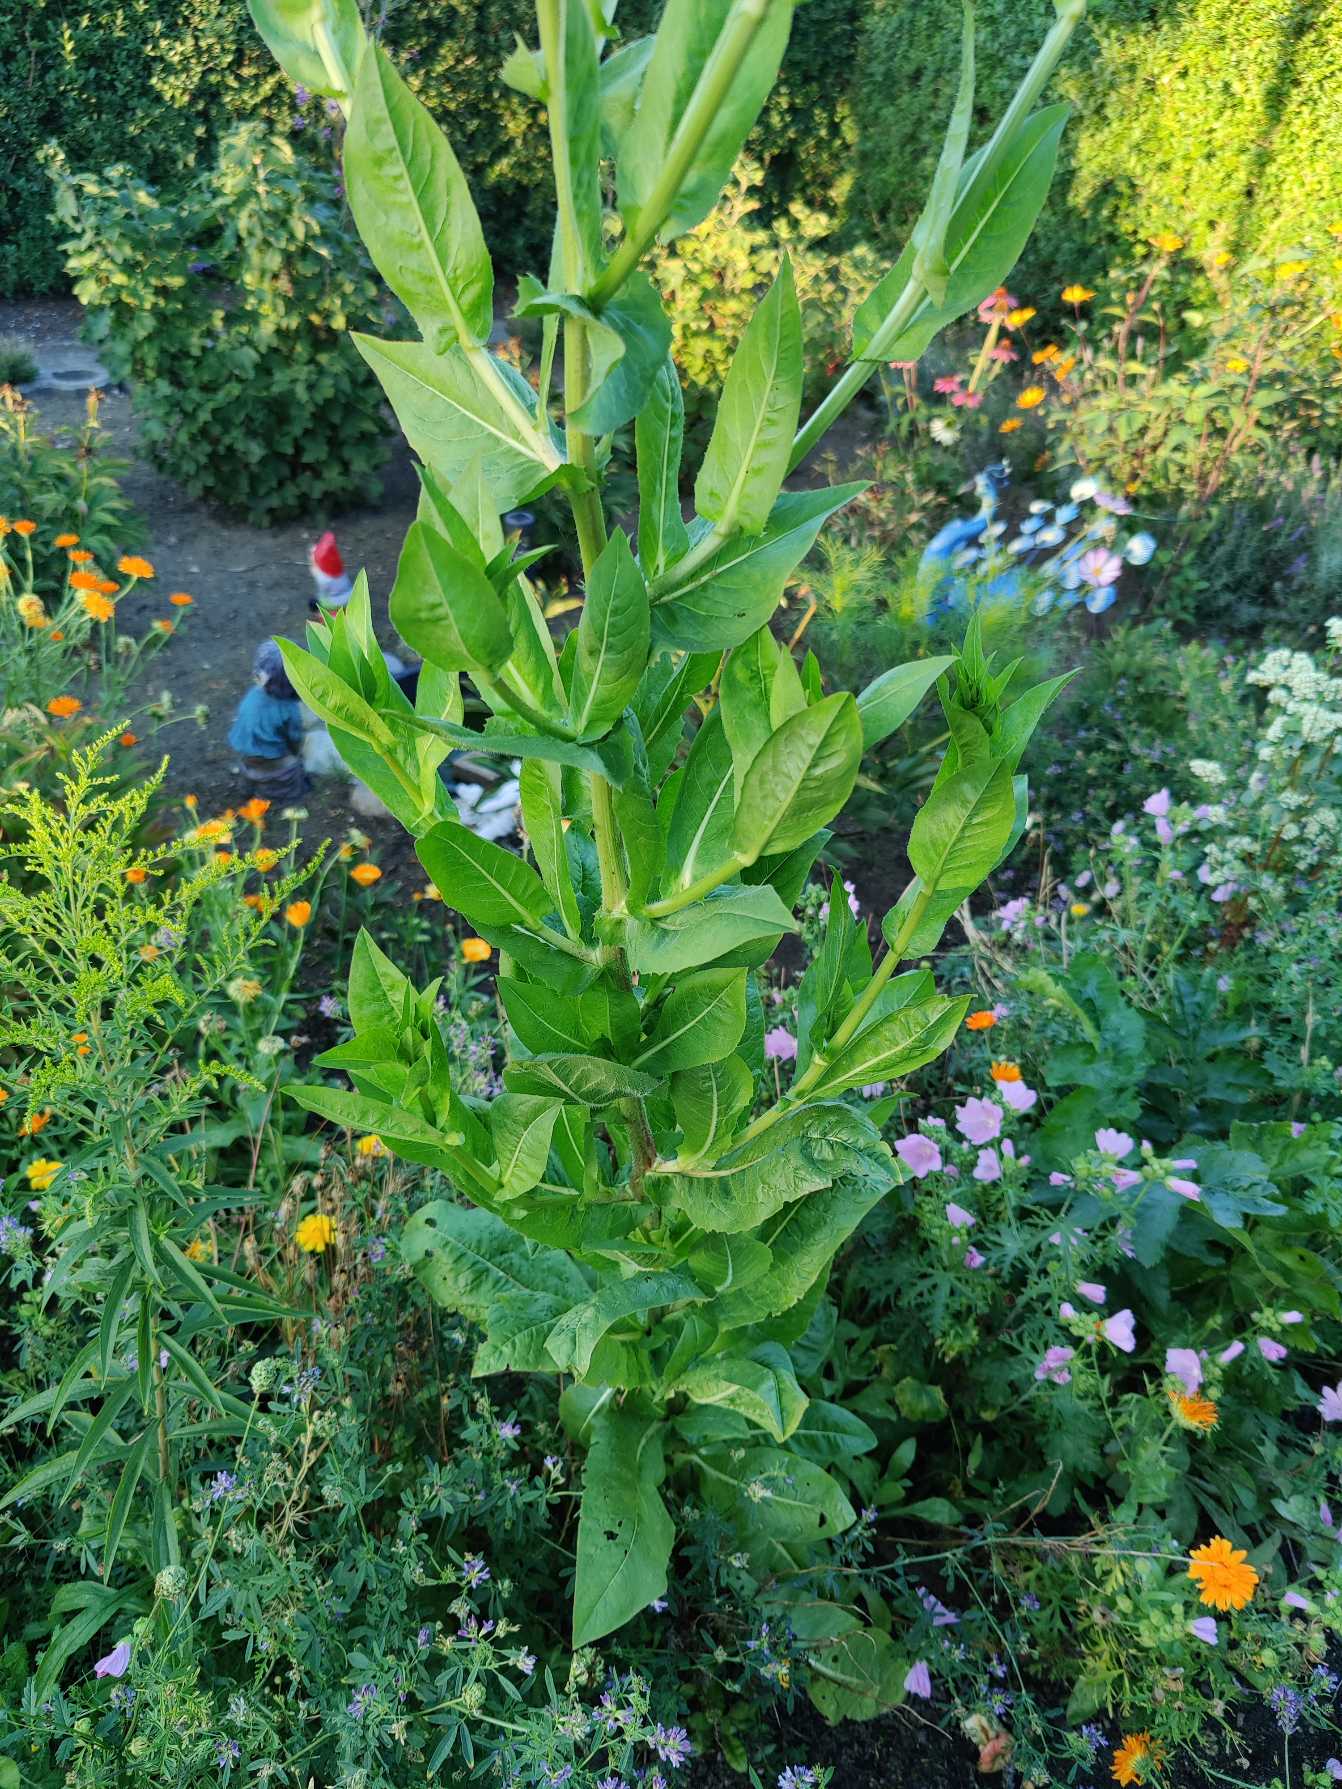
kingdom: Plantae
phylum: Tracheophyta
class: Magnoliopsida
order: Asterales
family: Asteraceae
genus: Cichorium
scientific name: Cichorium intybus
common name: Cikorie
